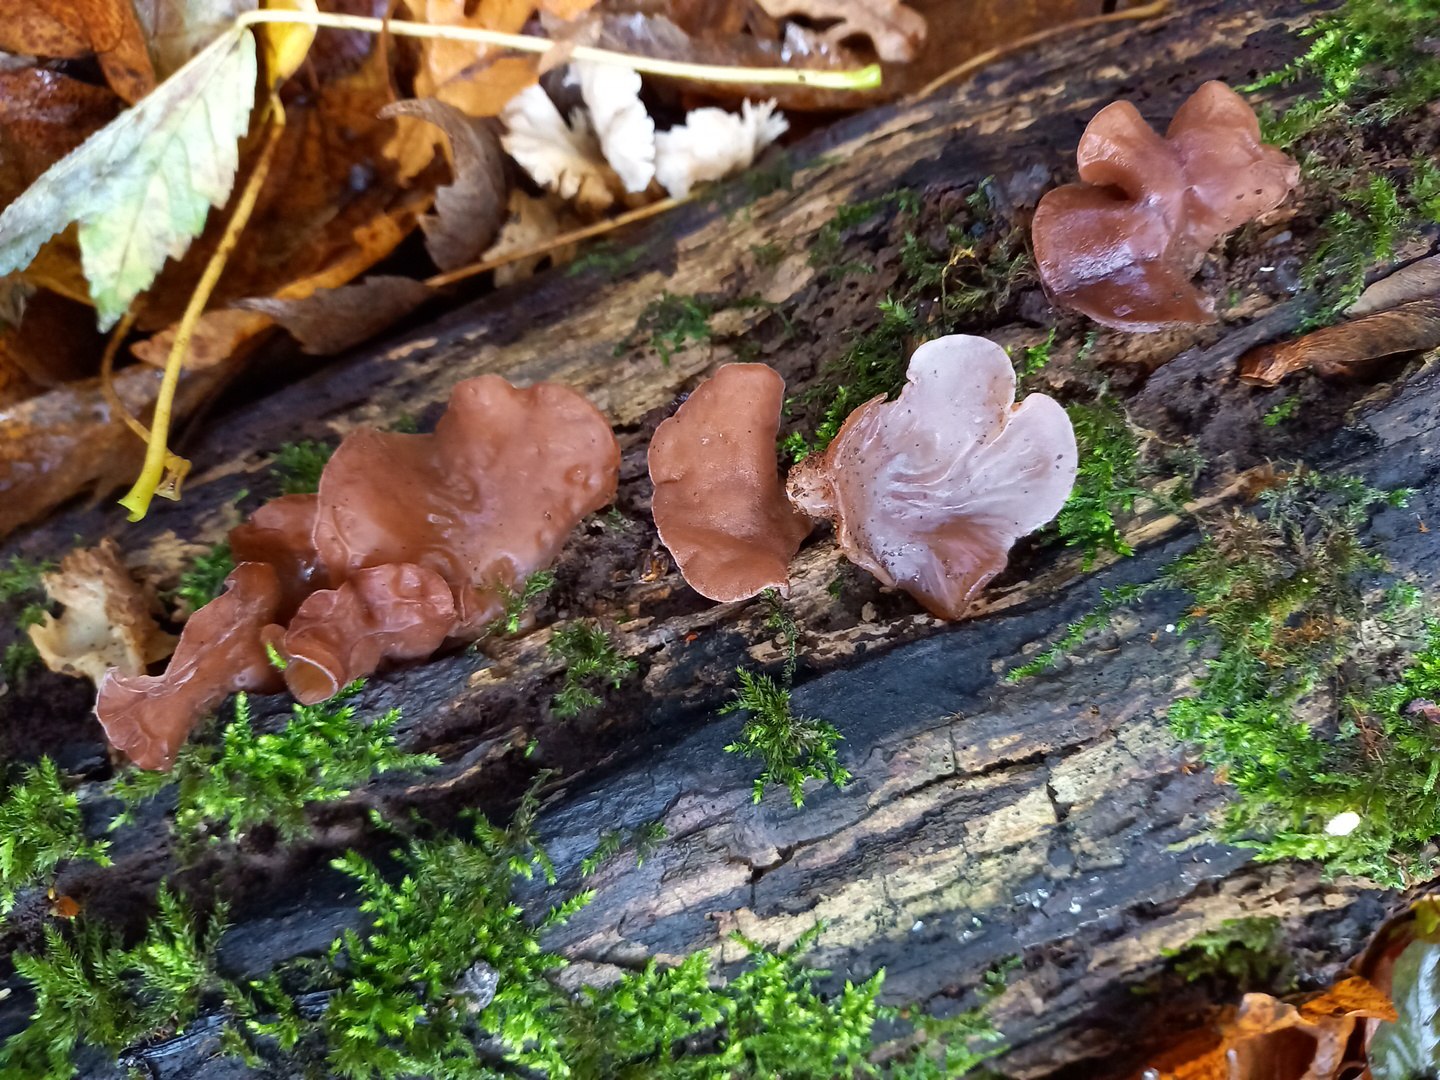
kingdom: Fungi
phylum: Basidiomycota
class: Agaricomycetes
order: Auriculariales
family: Auriculariaceae
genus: Auricularia
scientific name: Auricularia auricula-judae
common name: almindelig judasøre
